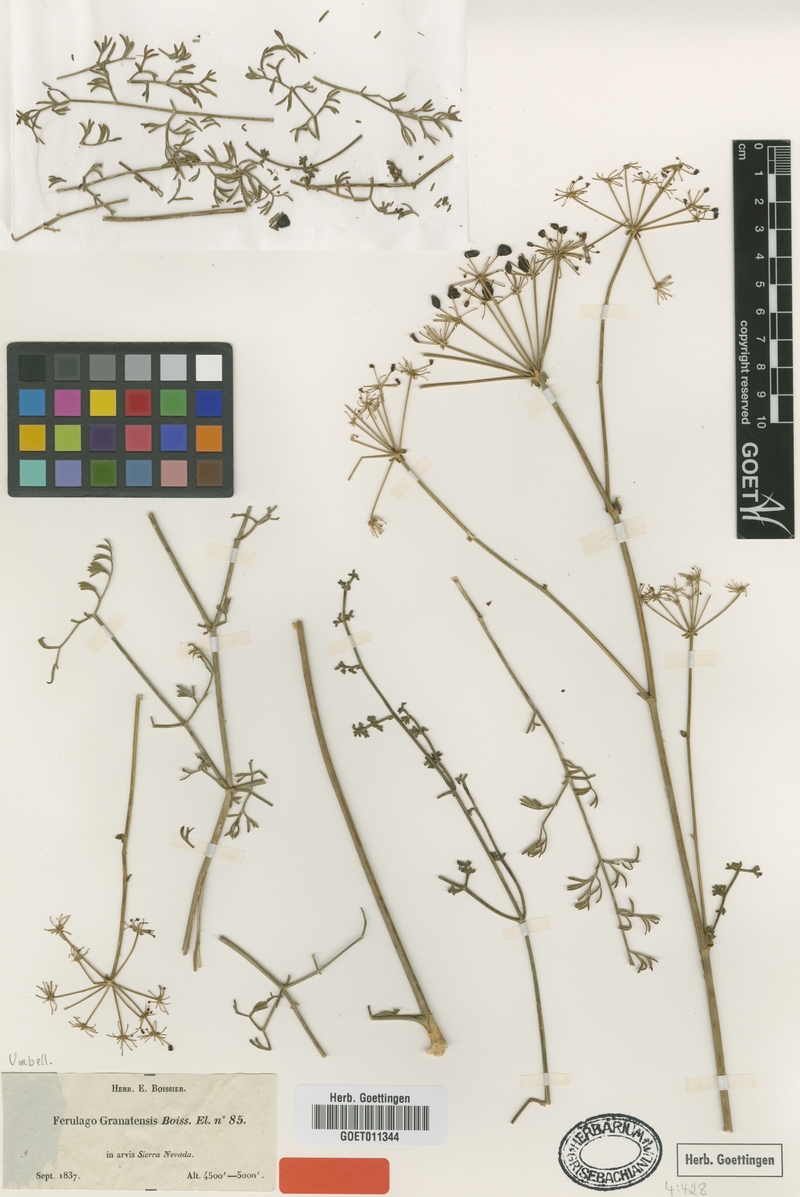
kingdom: Plantae
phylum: Tracheophyta
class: Magnoliopsida
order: Apiales
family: Apiaceae
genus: Ferulago
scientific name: Ferulago granatensis
